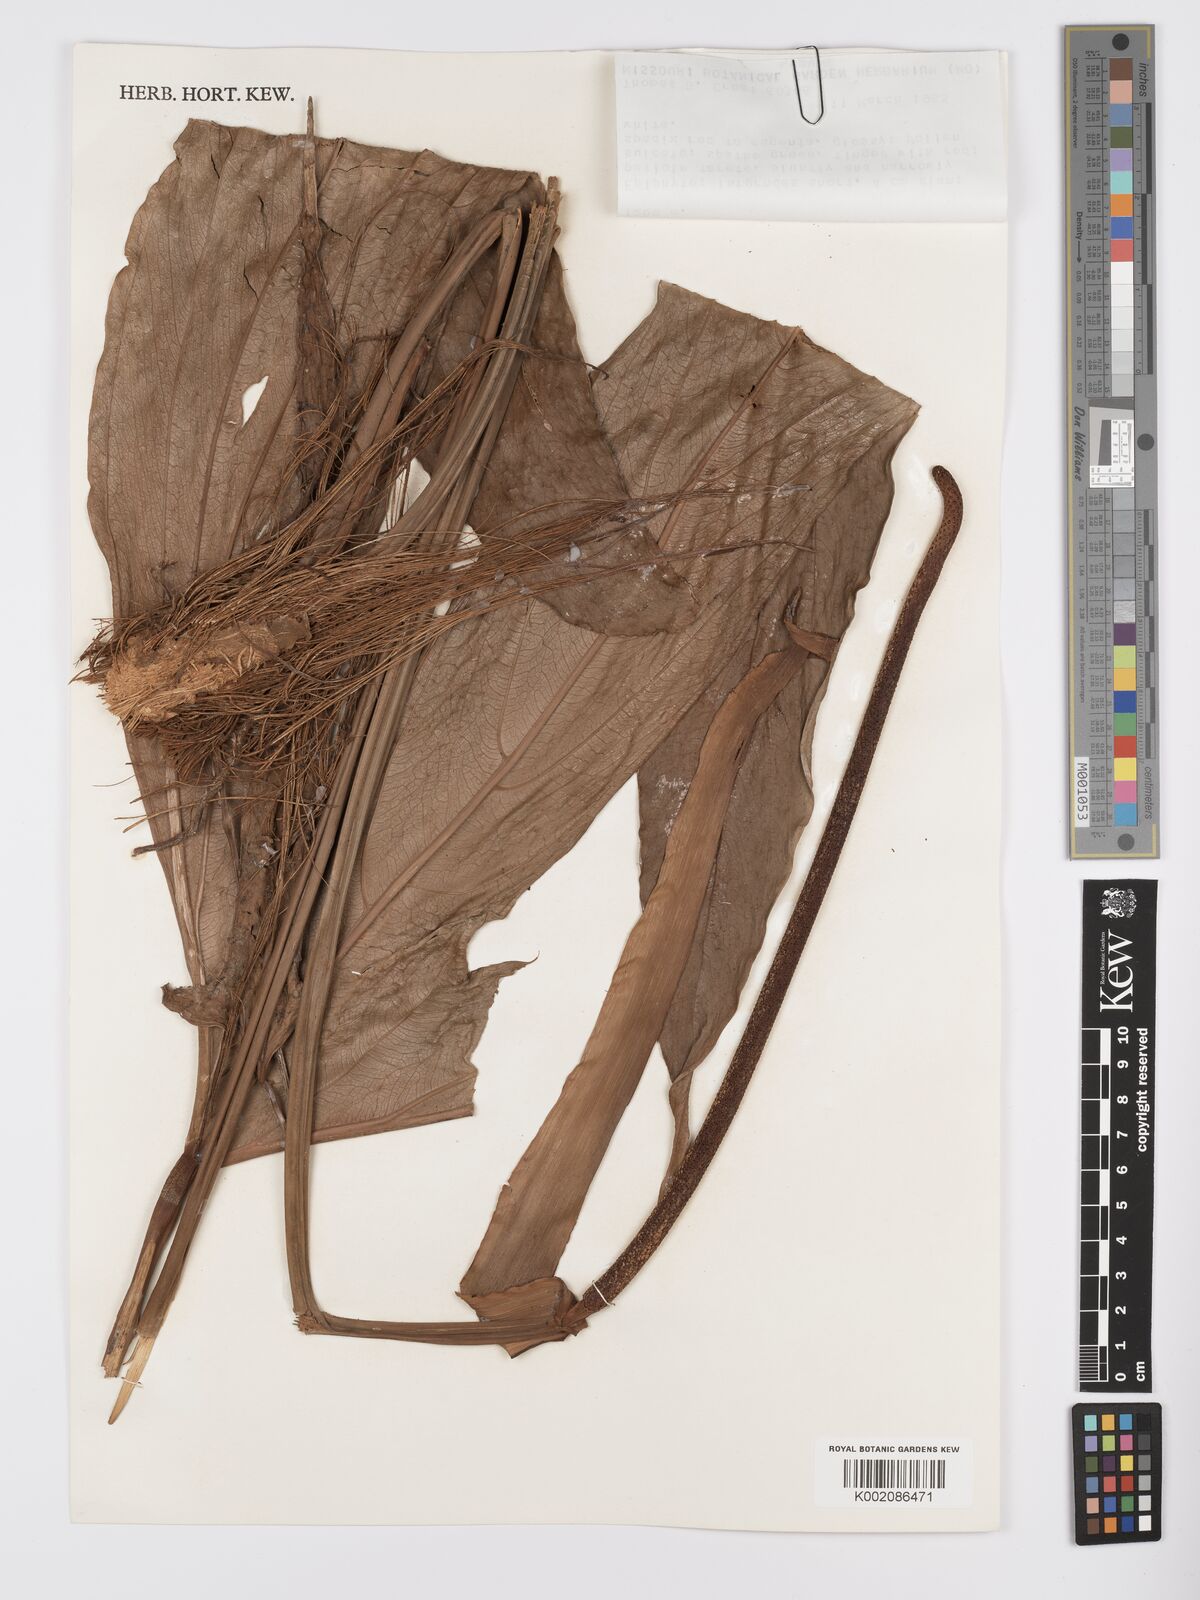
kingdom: Plantae
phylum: Tracheophyta
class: Liliopsida
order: Alismatales
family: Araceae
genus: Anthurium
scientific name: Anthurium madisonianum
